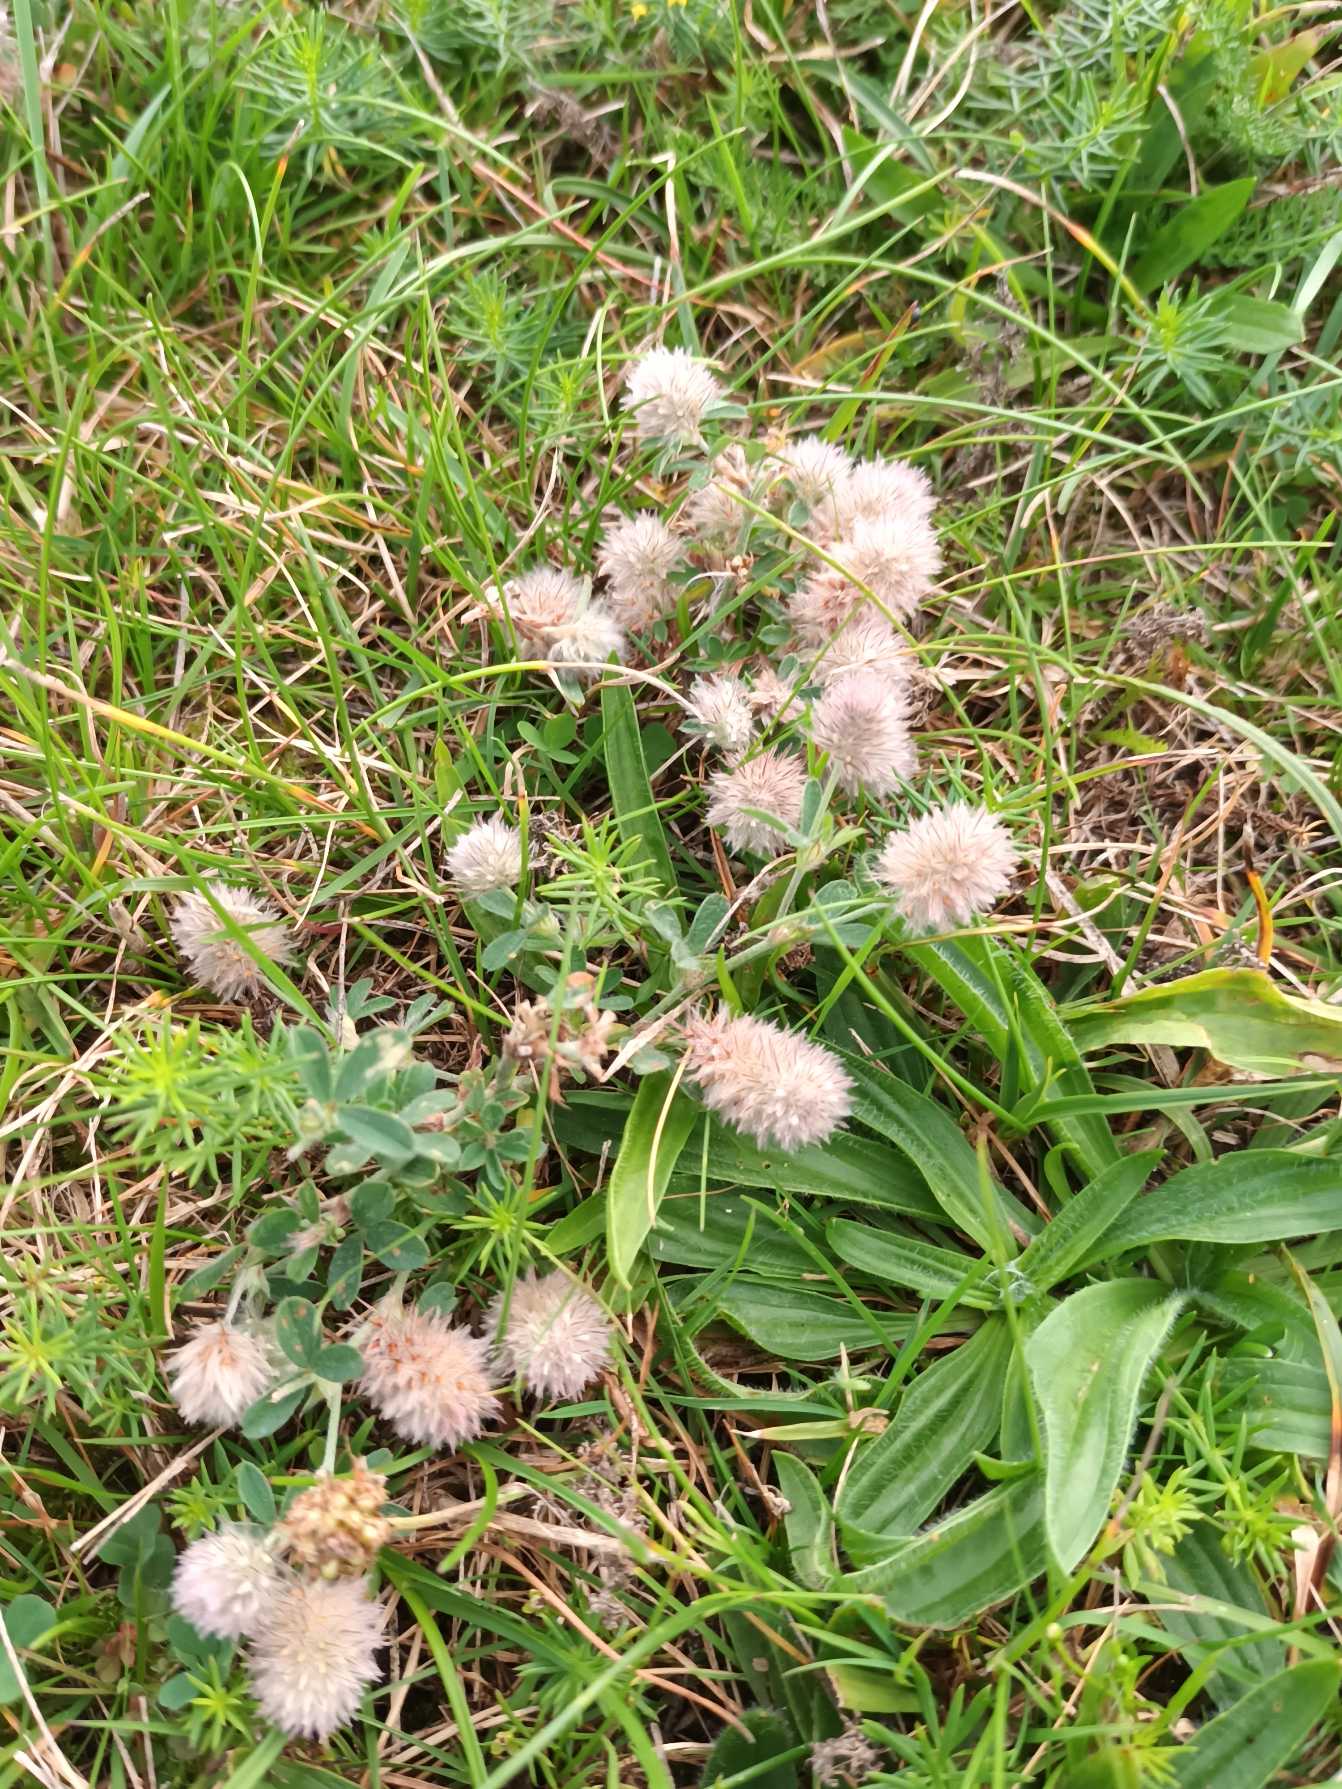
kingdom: Plantae
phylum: Tracheophyta
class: Magnoliopsida
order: Fabales
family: Fabaceae
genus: Trifolium
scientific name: Trifolium arvense
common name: Hare-kløver
